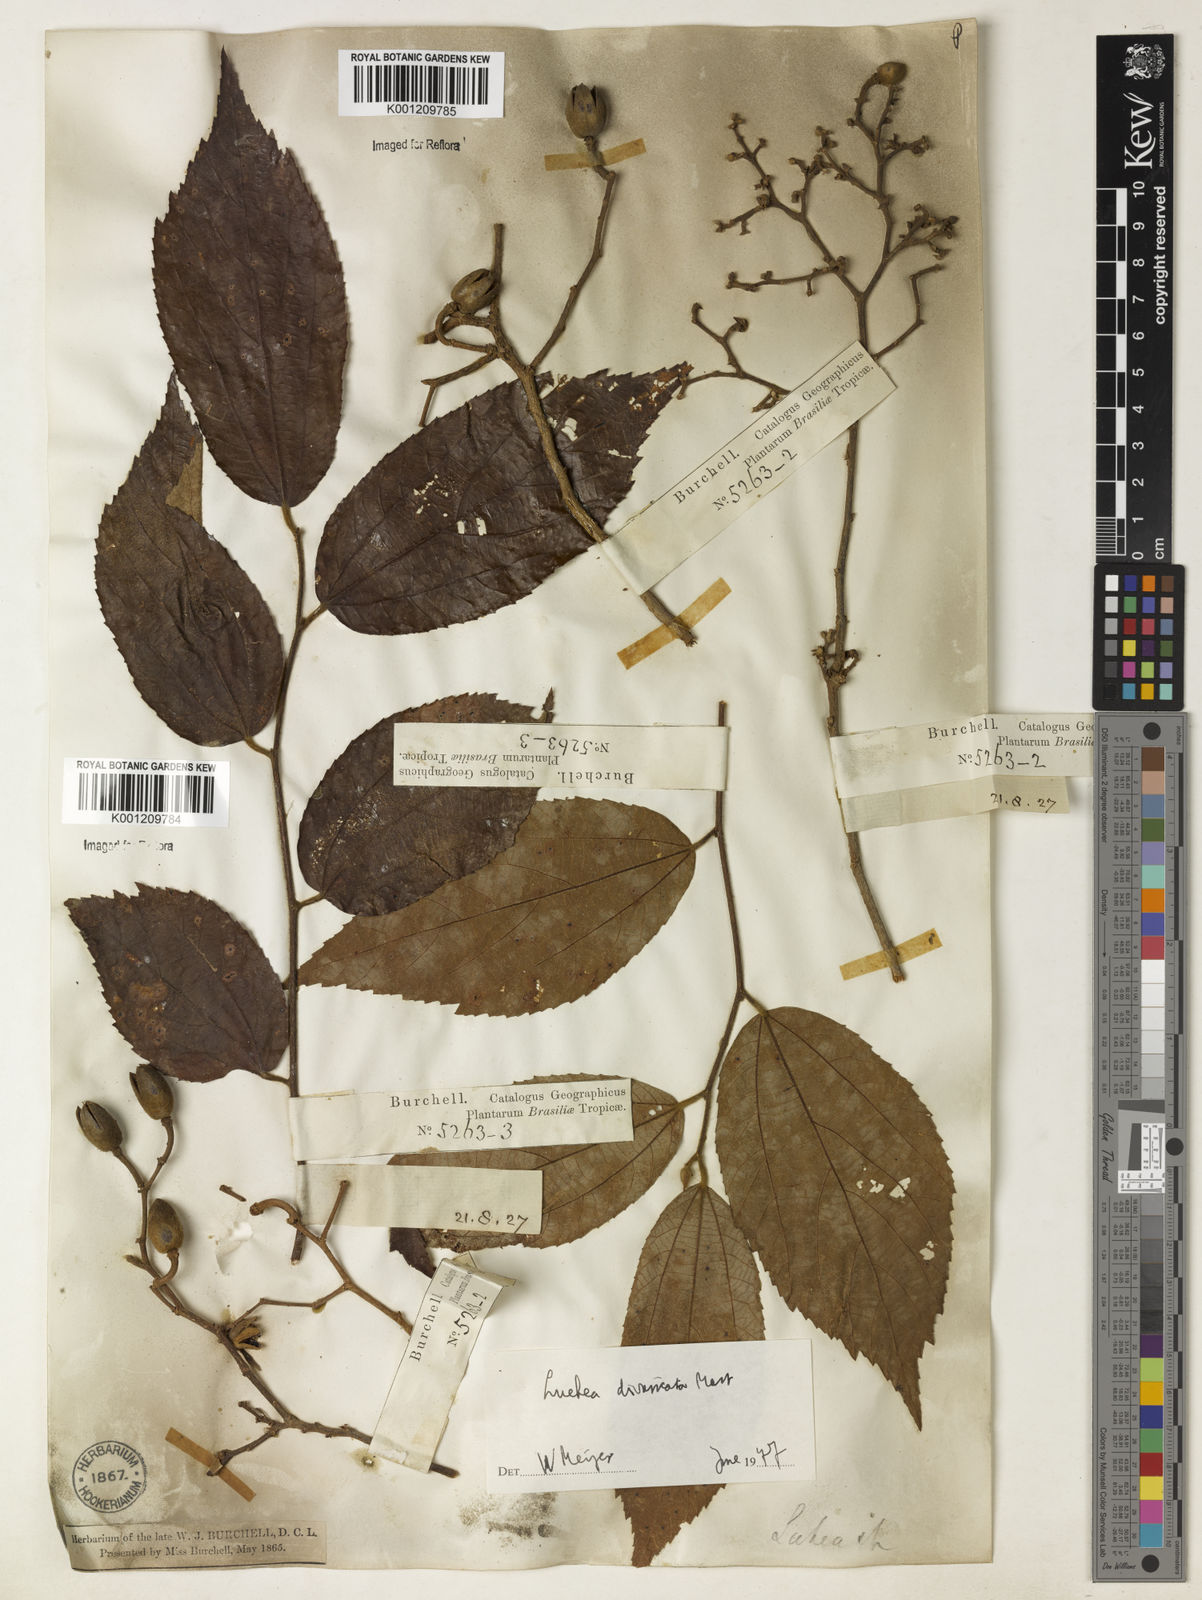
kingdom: Plantae
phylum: Tracheophyta
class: Magnoliopsida
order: Malvales
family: Malvaceae
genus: Luehea
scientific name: Luehea divaricata
